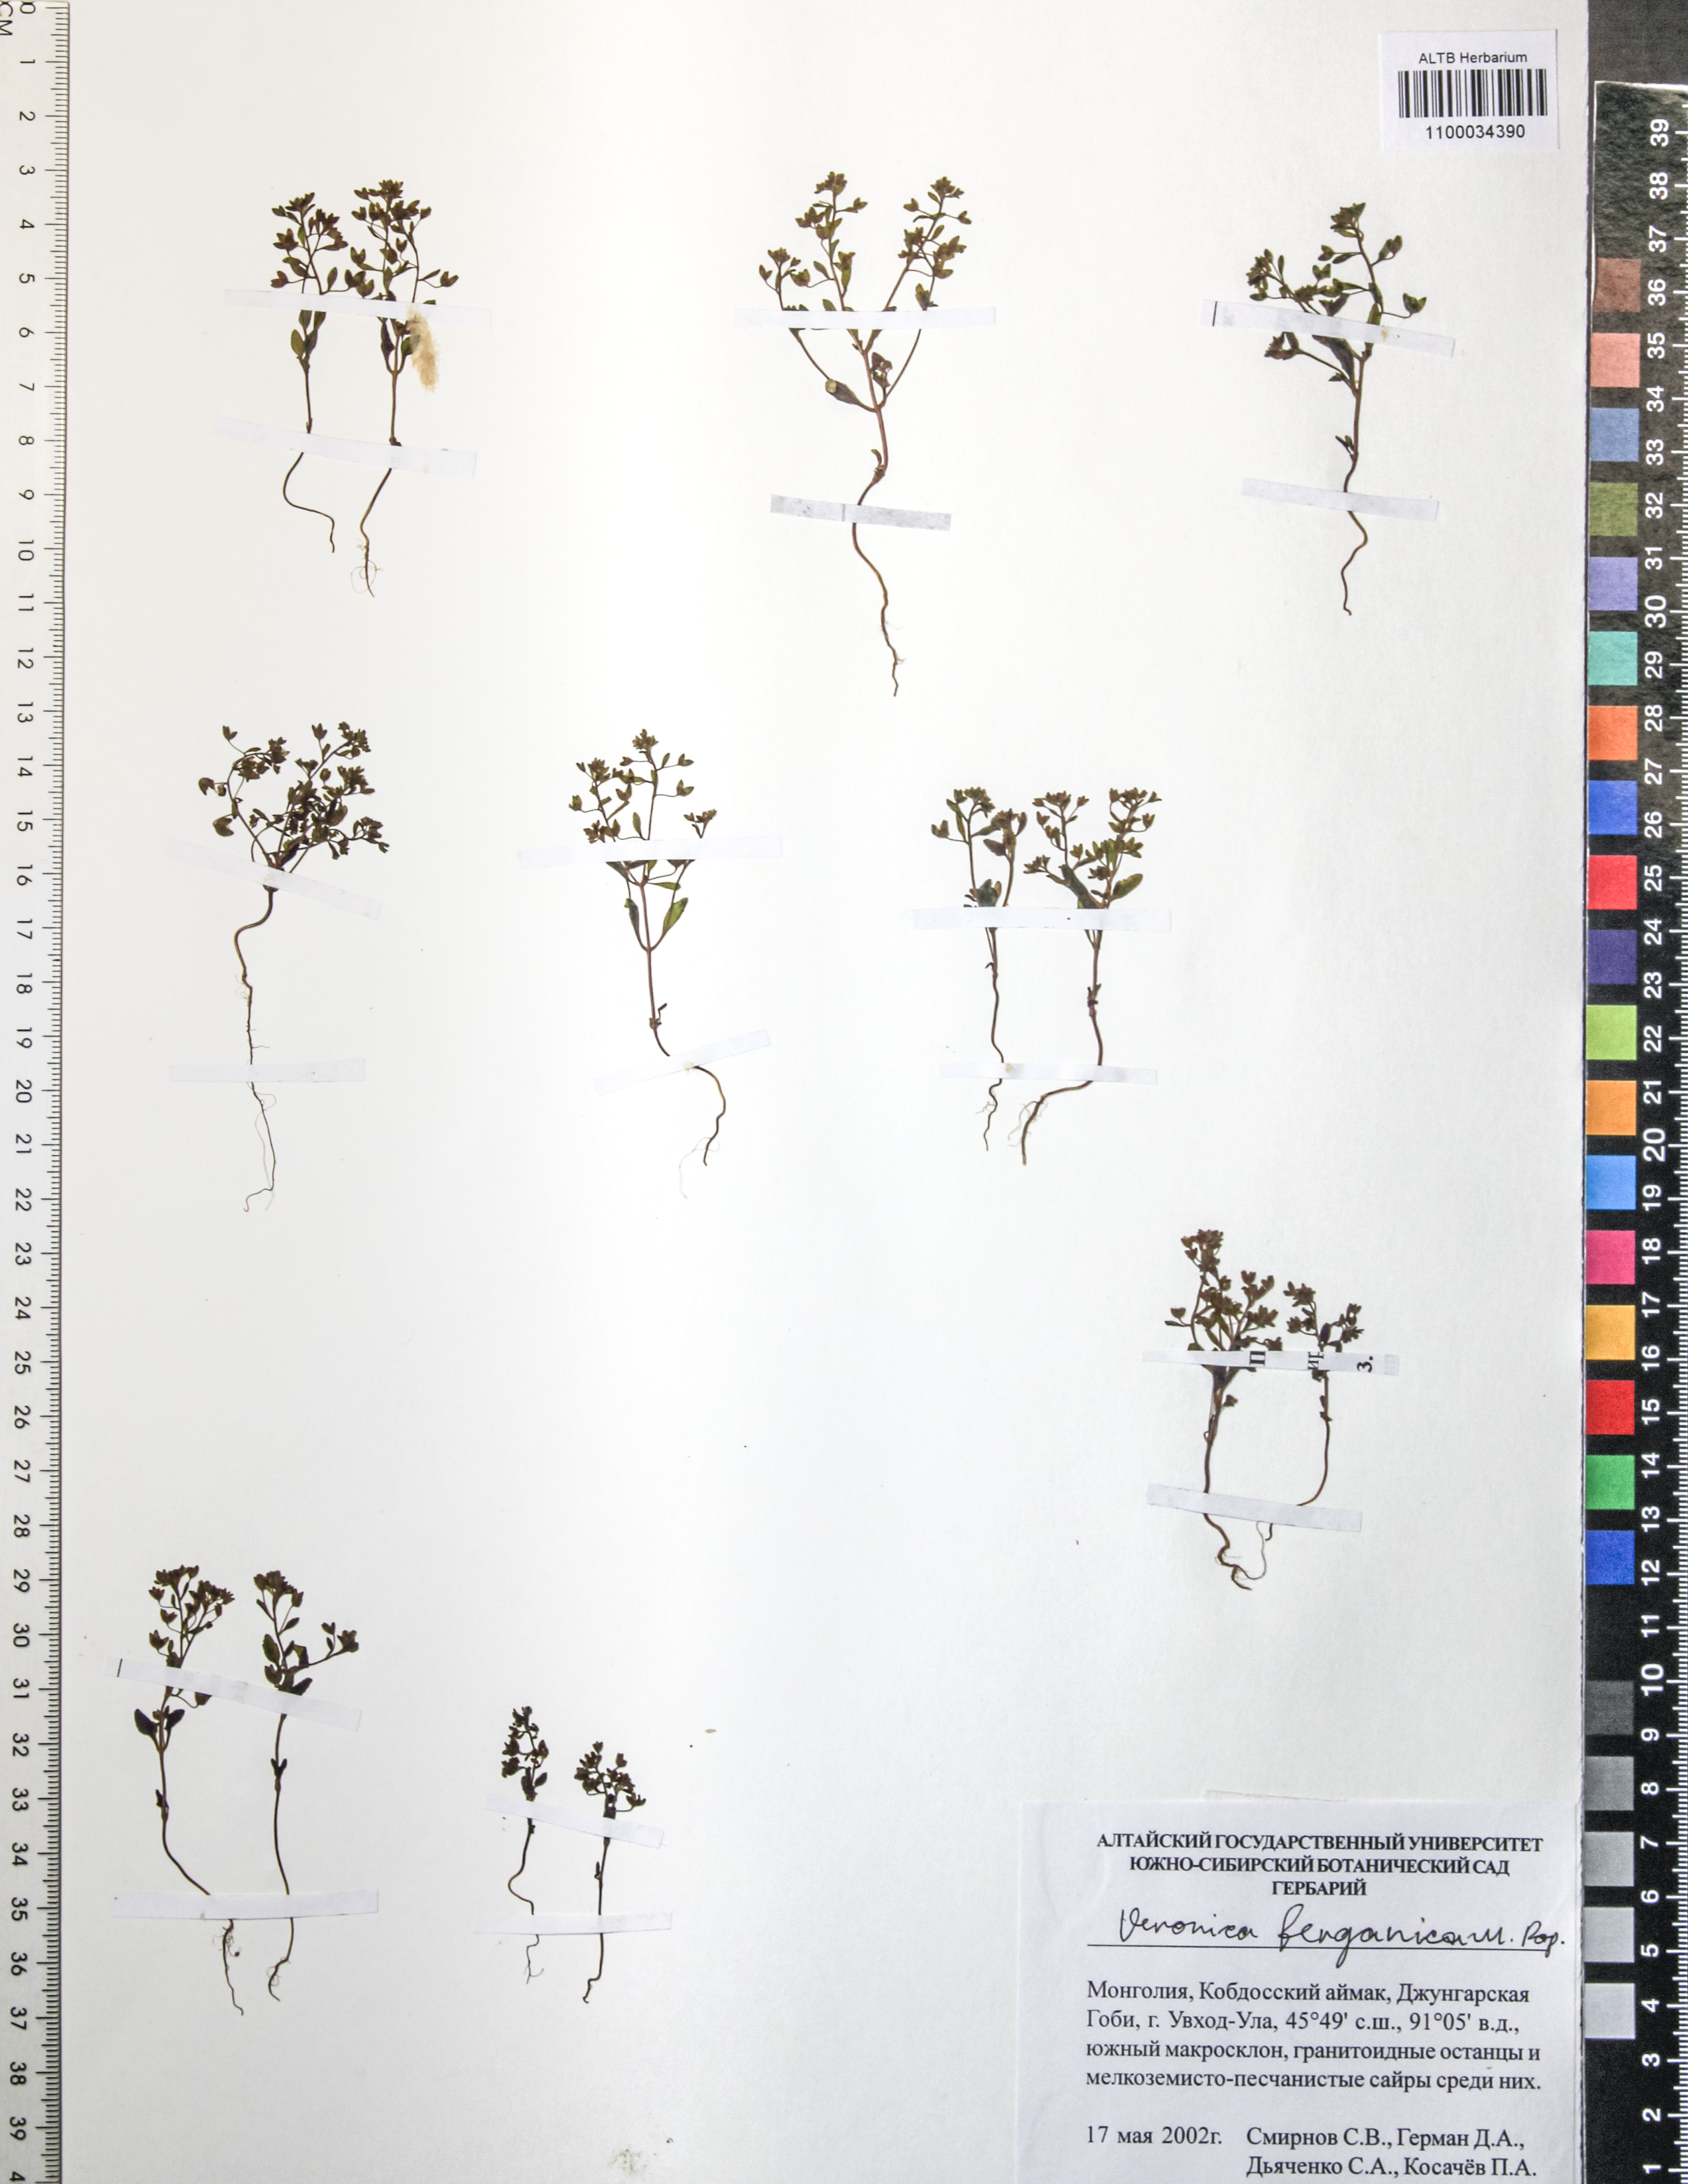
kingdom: Plantae
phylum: Tracheophyta
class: Magnoliopsida
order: Lamiales
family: Plantaginaceae
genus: Veronica
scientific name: Veronica ferganica
